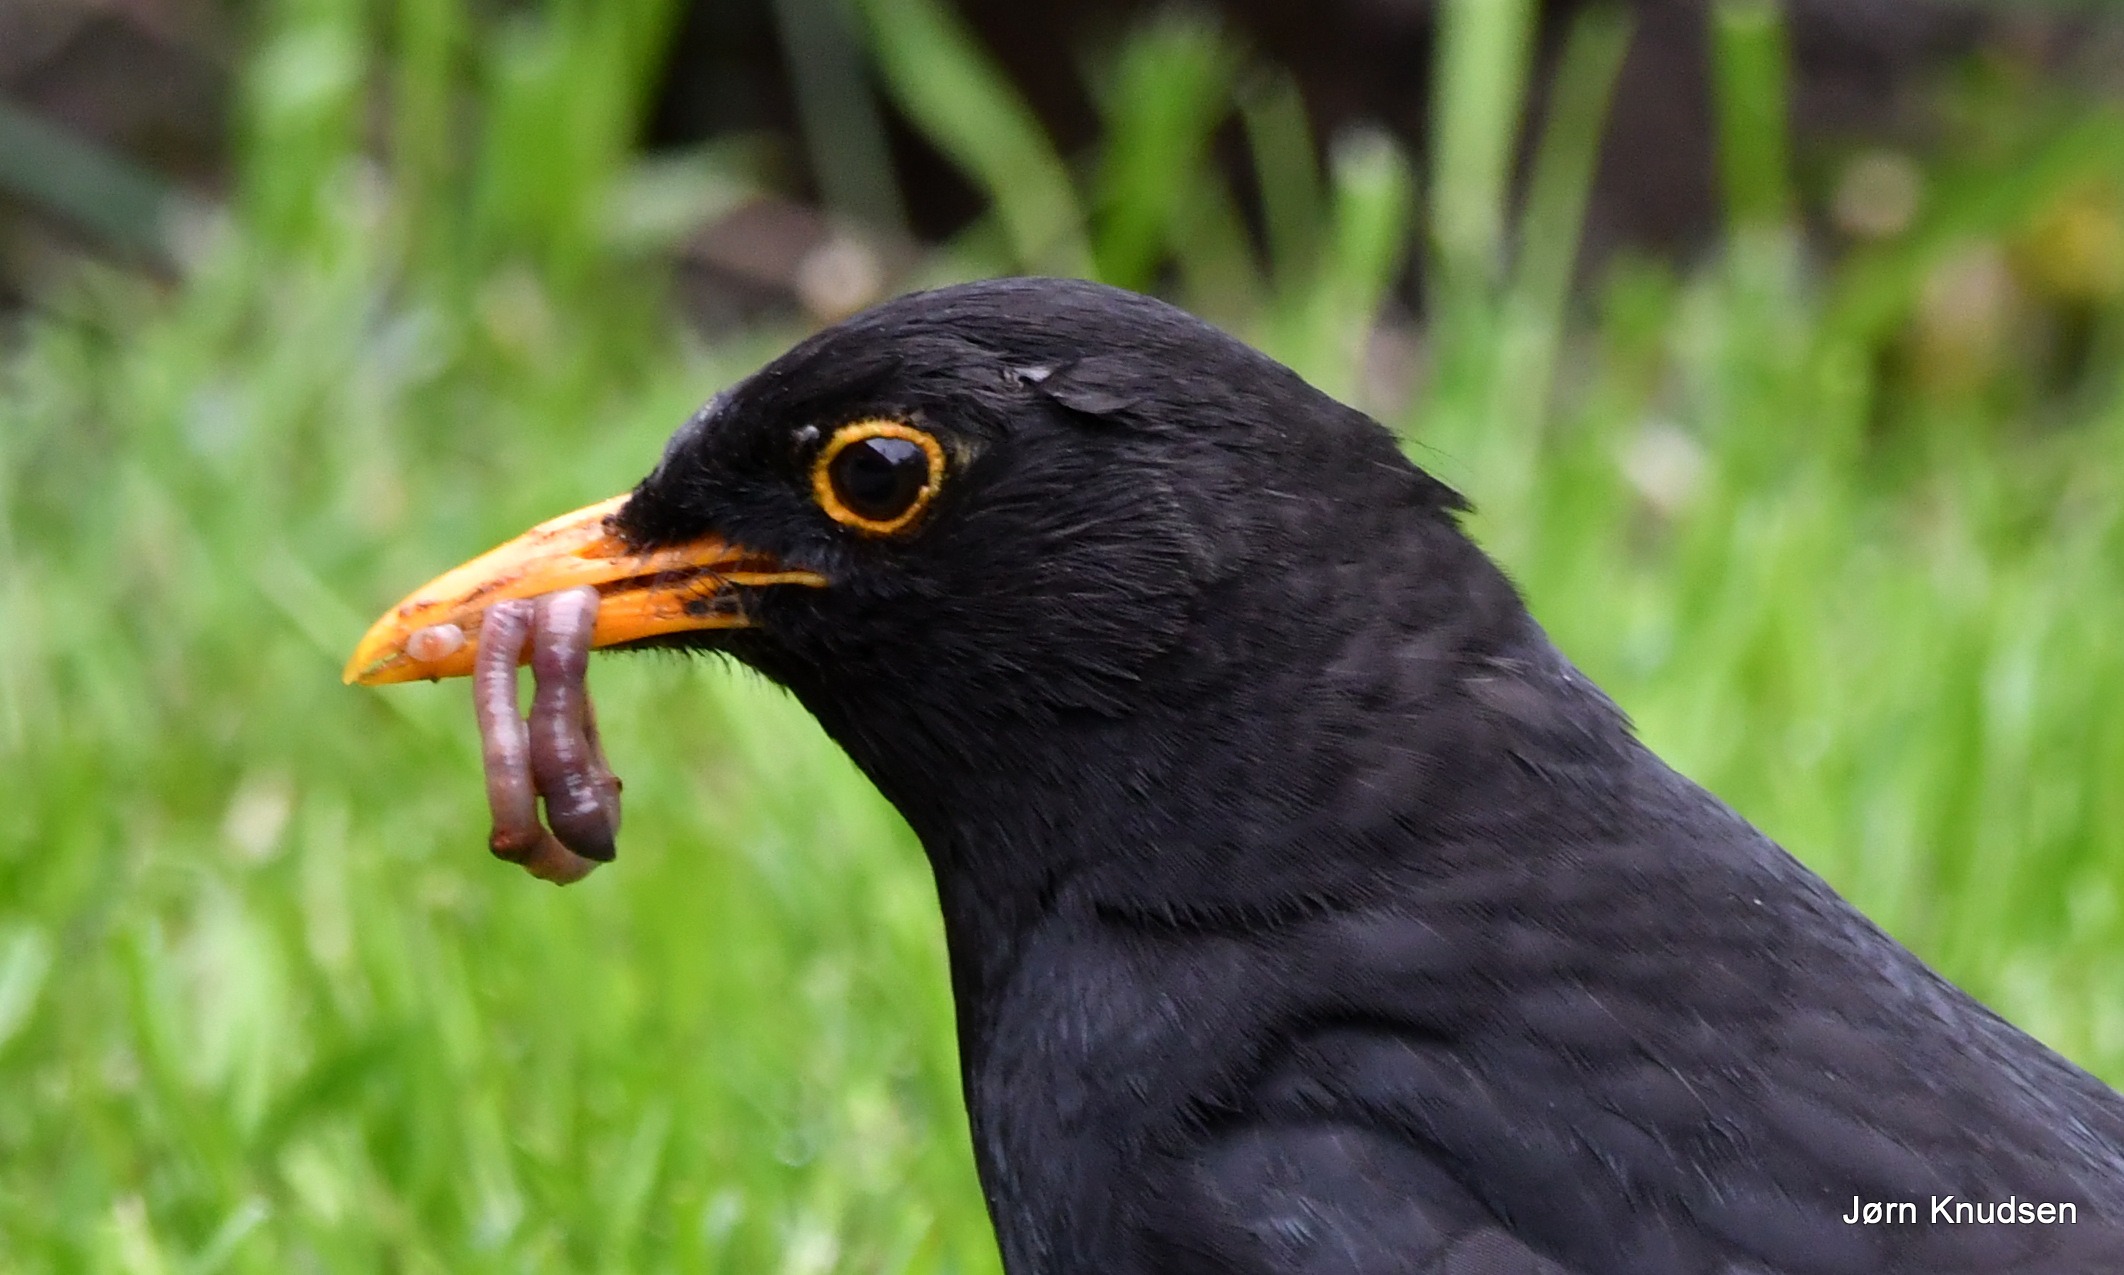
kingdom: Animalia
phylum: Chordata
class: Aves
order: Passeriformes
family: Turdidae
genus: Turdus
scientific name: Turdus merula
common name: Solsort
